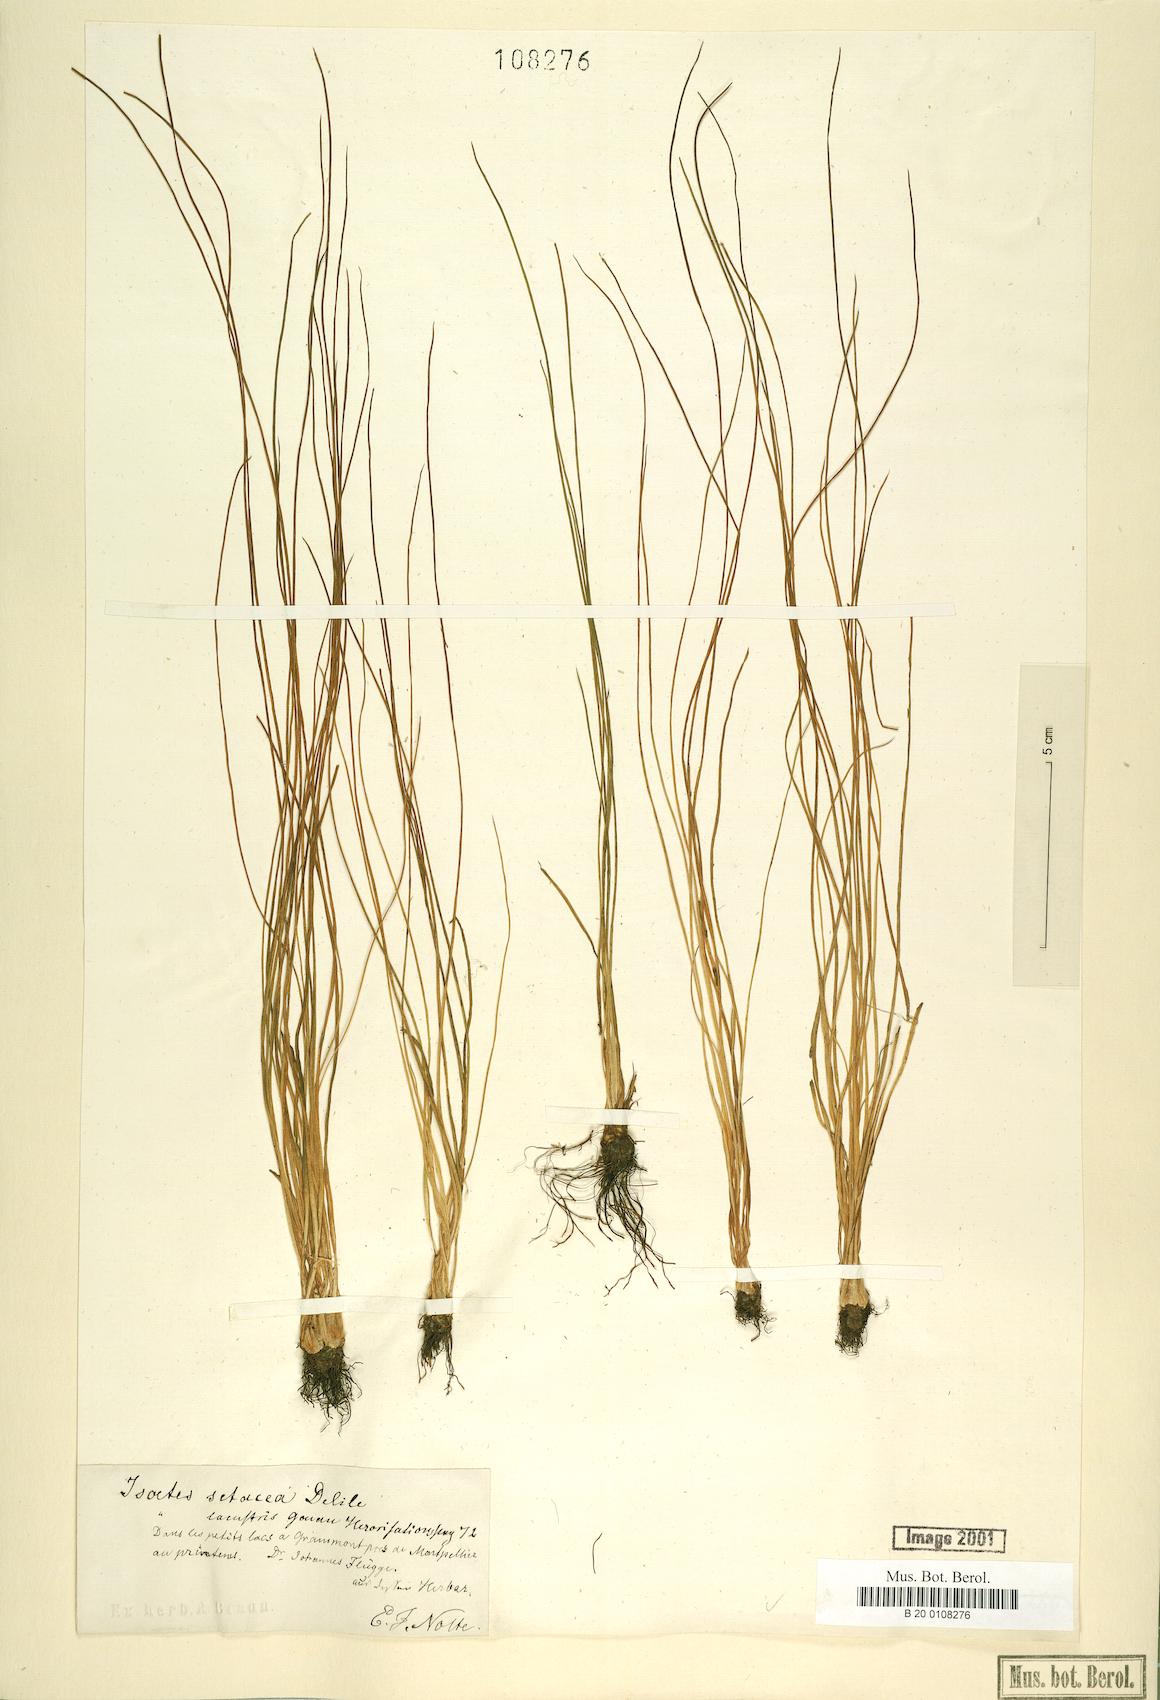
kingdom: Plantae
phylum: Tracheophyta
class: Lycopodiopsida
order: Isoetales
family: Isoetaceae
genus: Isoetes
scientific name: Isoetes lacustris
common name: Common quillwort
